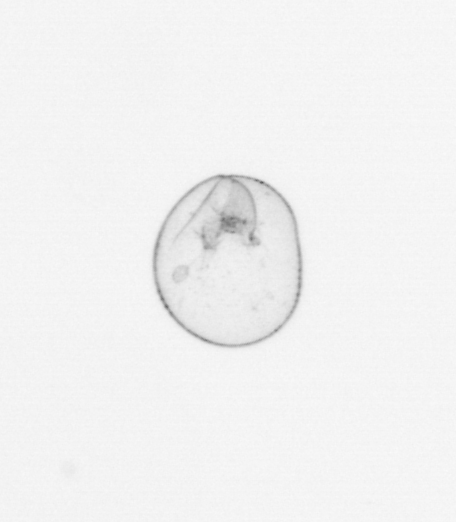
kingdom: Chromista
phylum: Myzozoa
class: Dinophyceae
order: Noctilucales
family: Noctilucaceae
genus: Noctiluca
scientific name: Noctiluca scintillans
